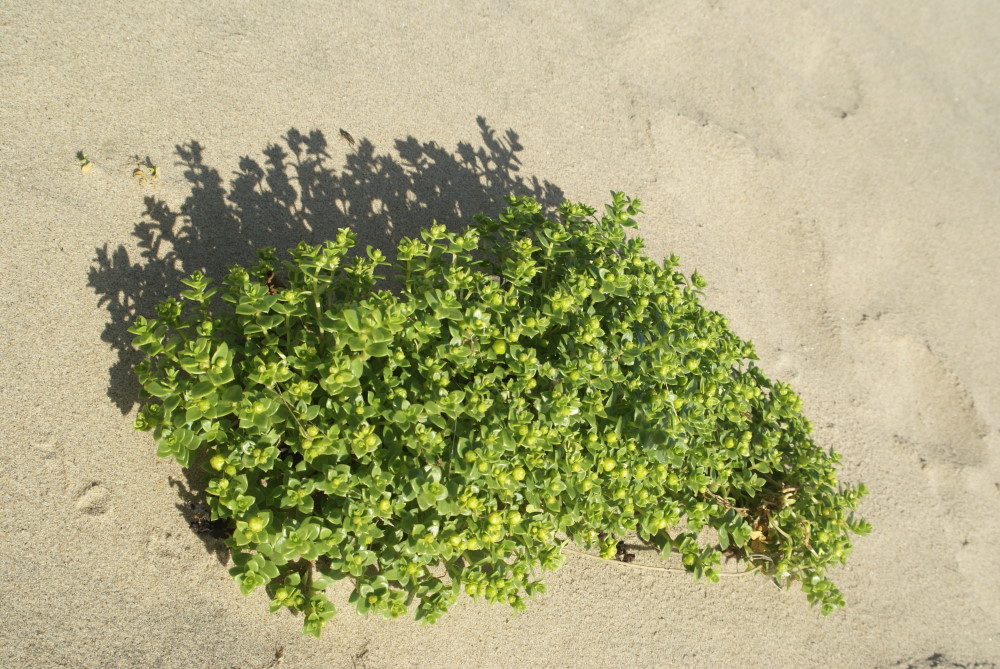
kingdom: Plantae
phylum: Tracheophyta
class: Magnoliopsida
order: Caryophyllales
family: Caryophyllaceae
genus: Honckenya
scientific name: Honckenya peploides
